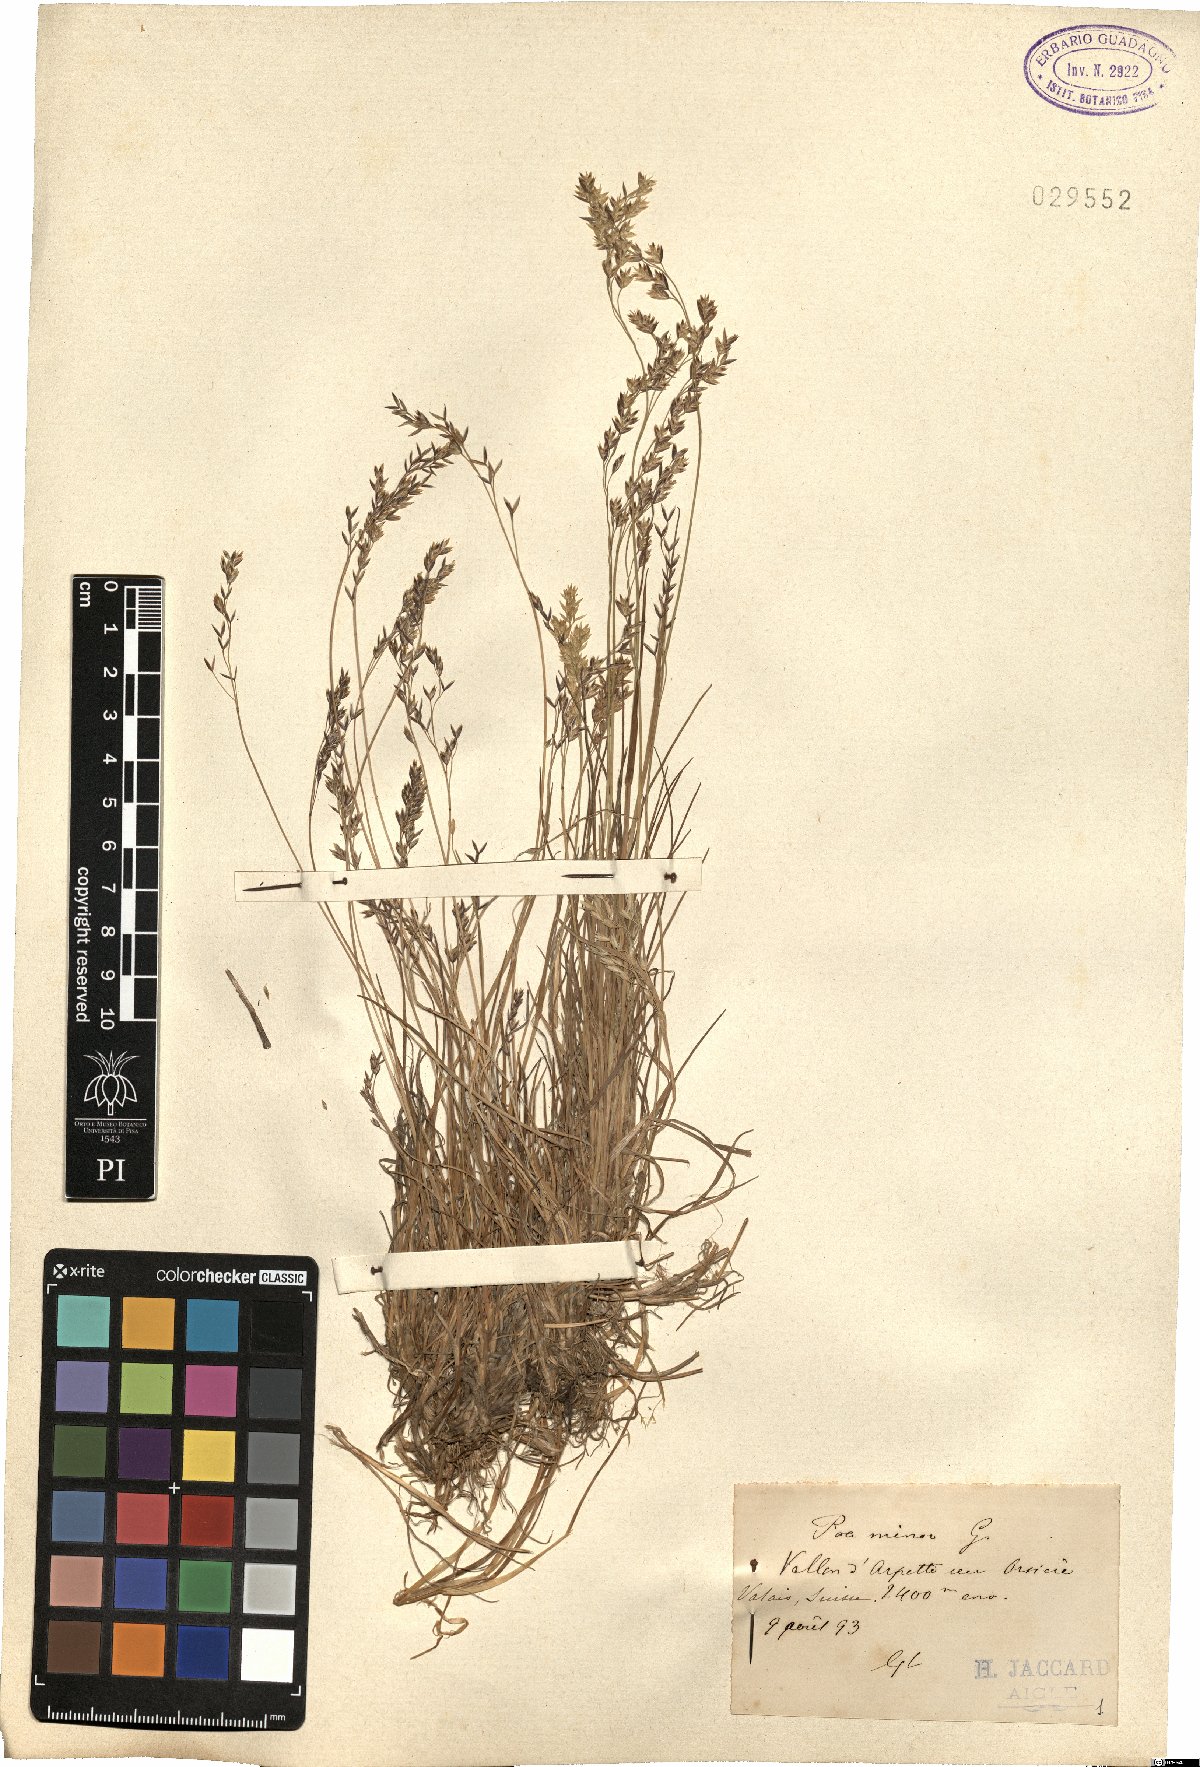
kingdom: Plantae
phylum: Tracheophyta
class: Liliopsida
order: Poales
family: Poaceae
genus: Poa
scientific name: Poa minor
